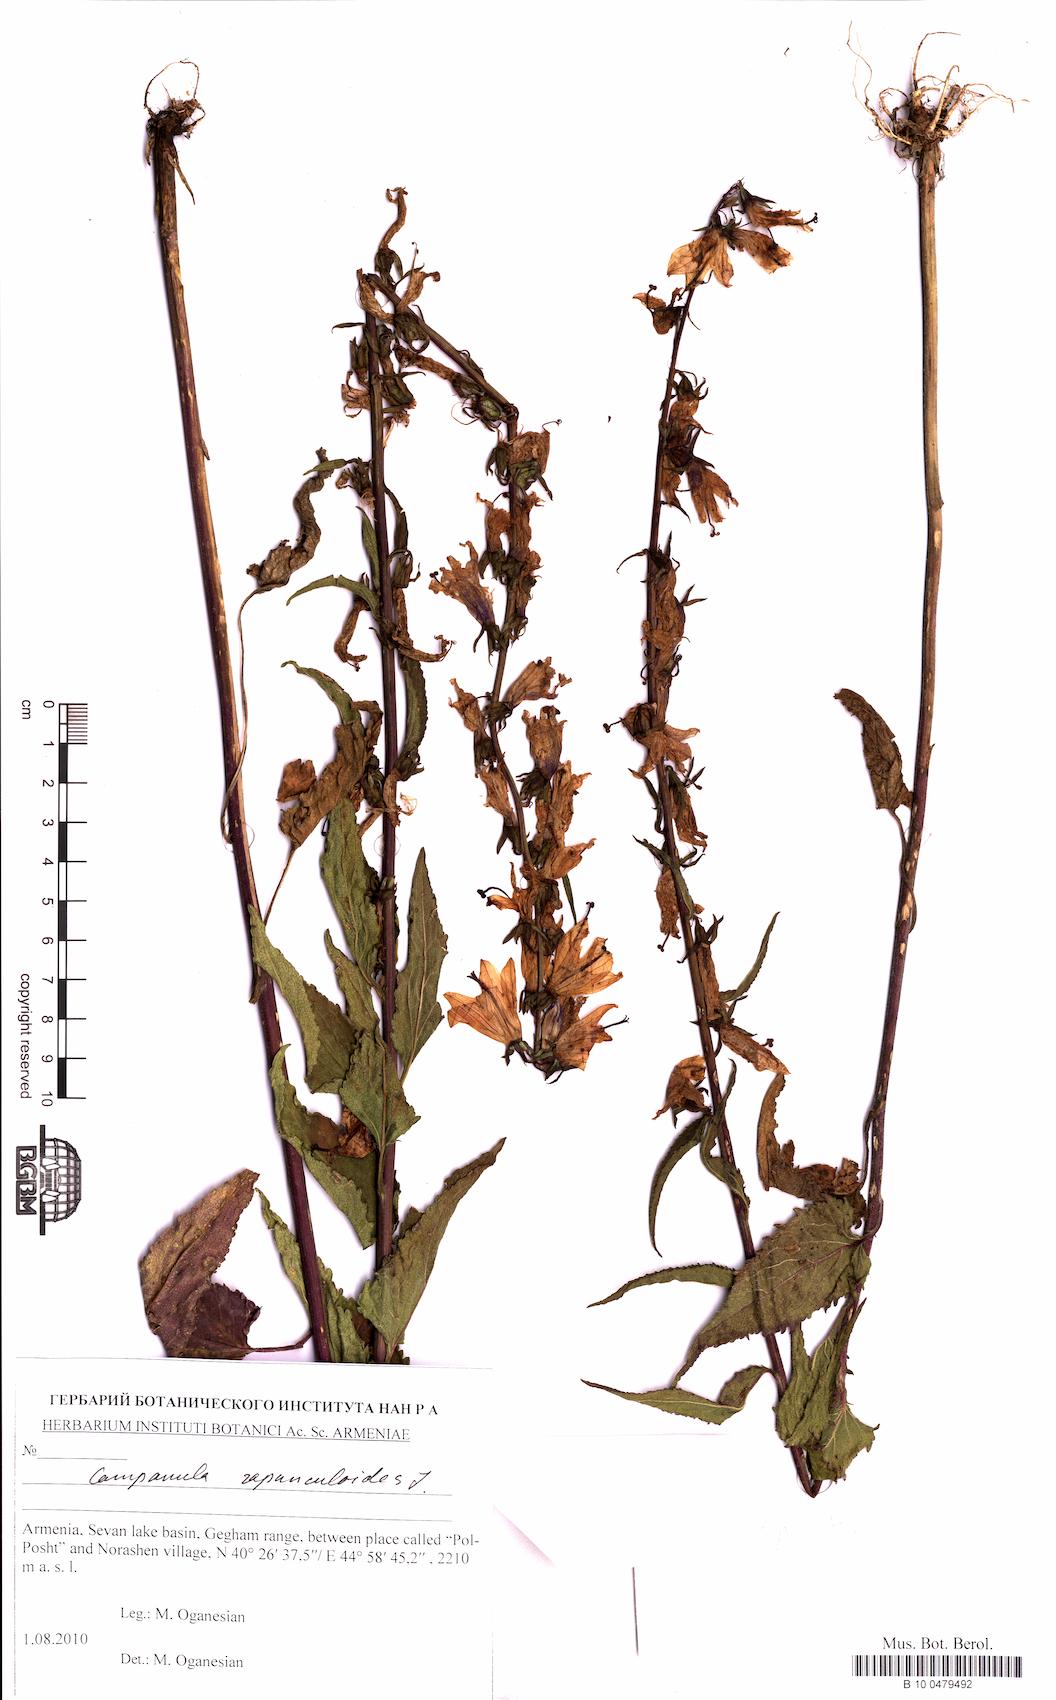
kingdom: Plantae
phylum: Tracheophyta
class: Magnoliopsida
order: Asterales
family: Campanulaceae
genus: Campanula
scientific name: Campanula rapunculoides
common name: Creeping bellflower
